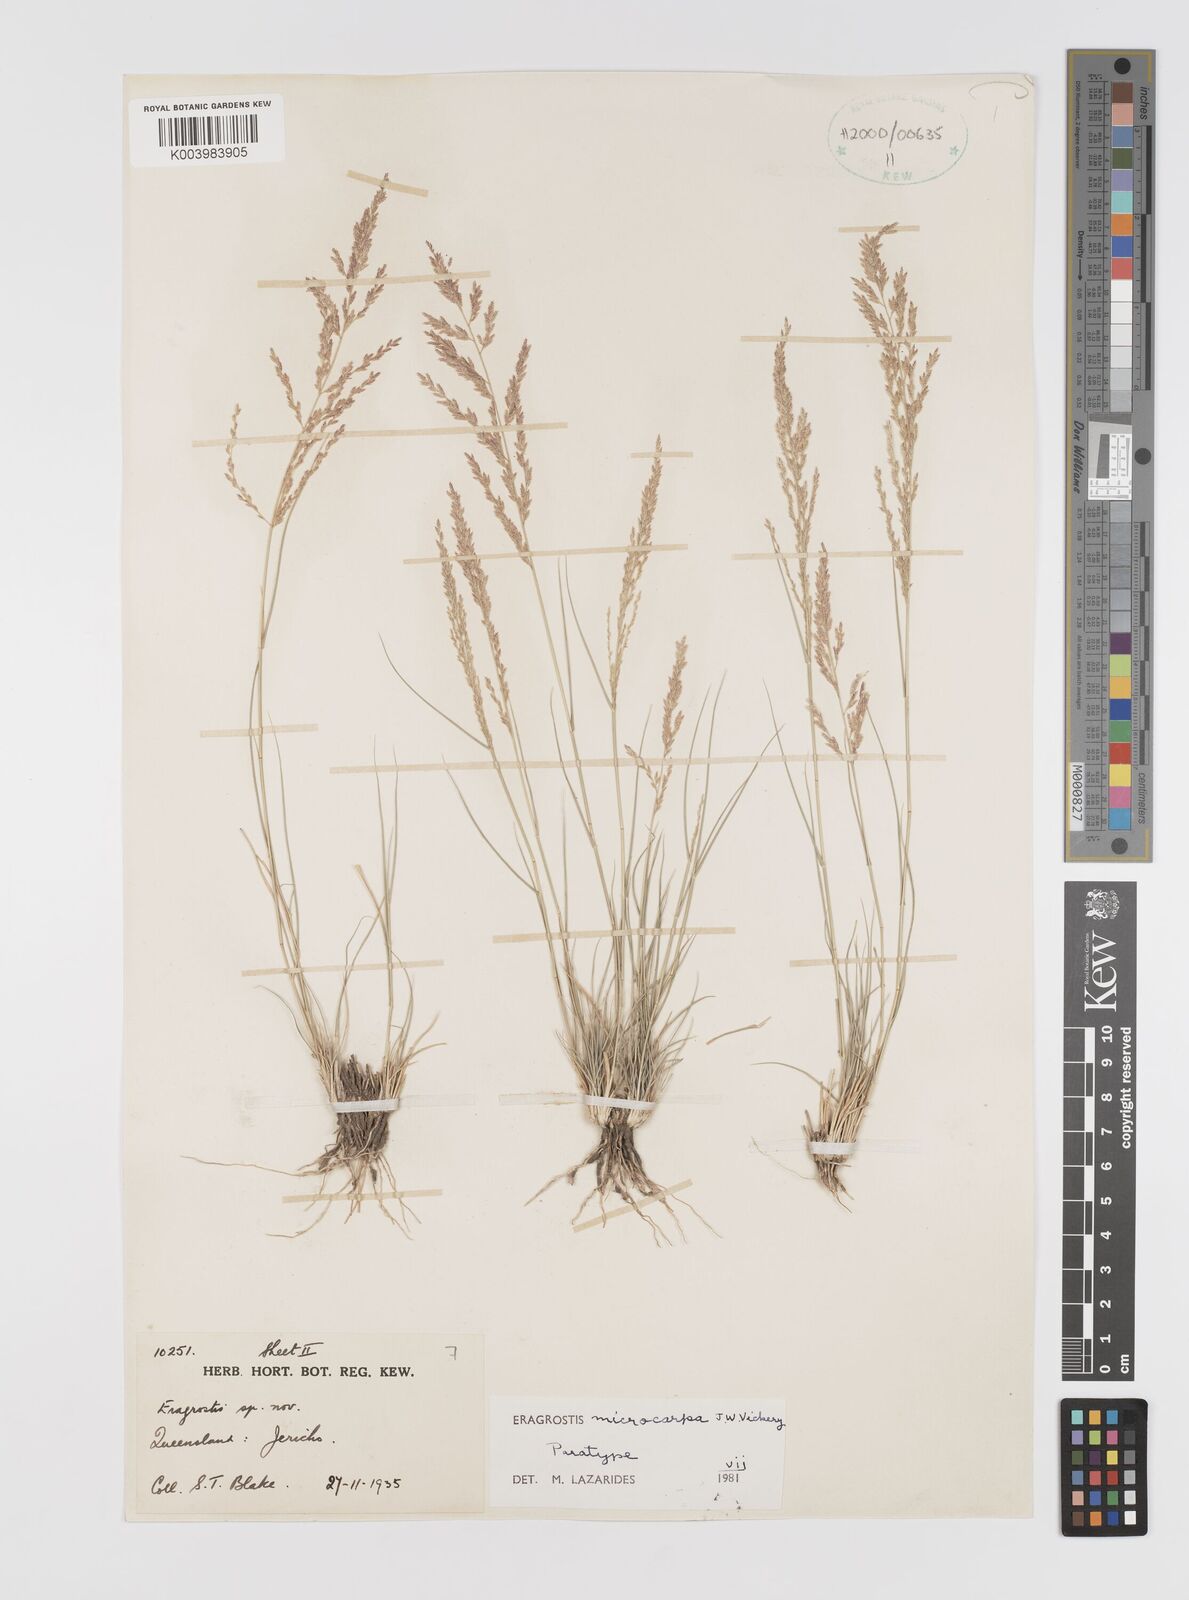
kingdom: Plantae
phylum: Tracheophyta
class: Liliopsida
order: Poales
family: Poaceae
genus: Eragrostis
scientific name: Eragrostis microcarpa
